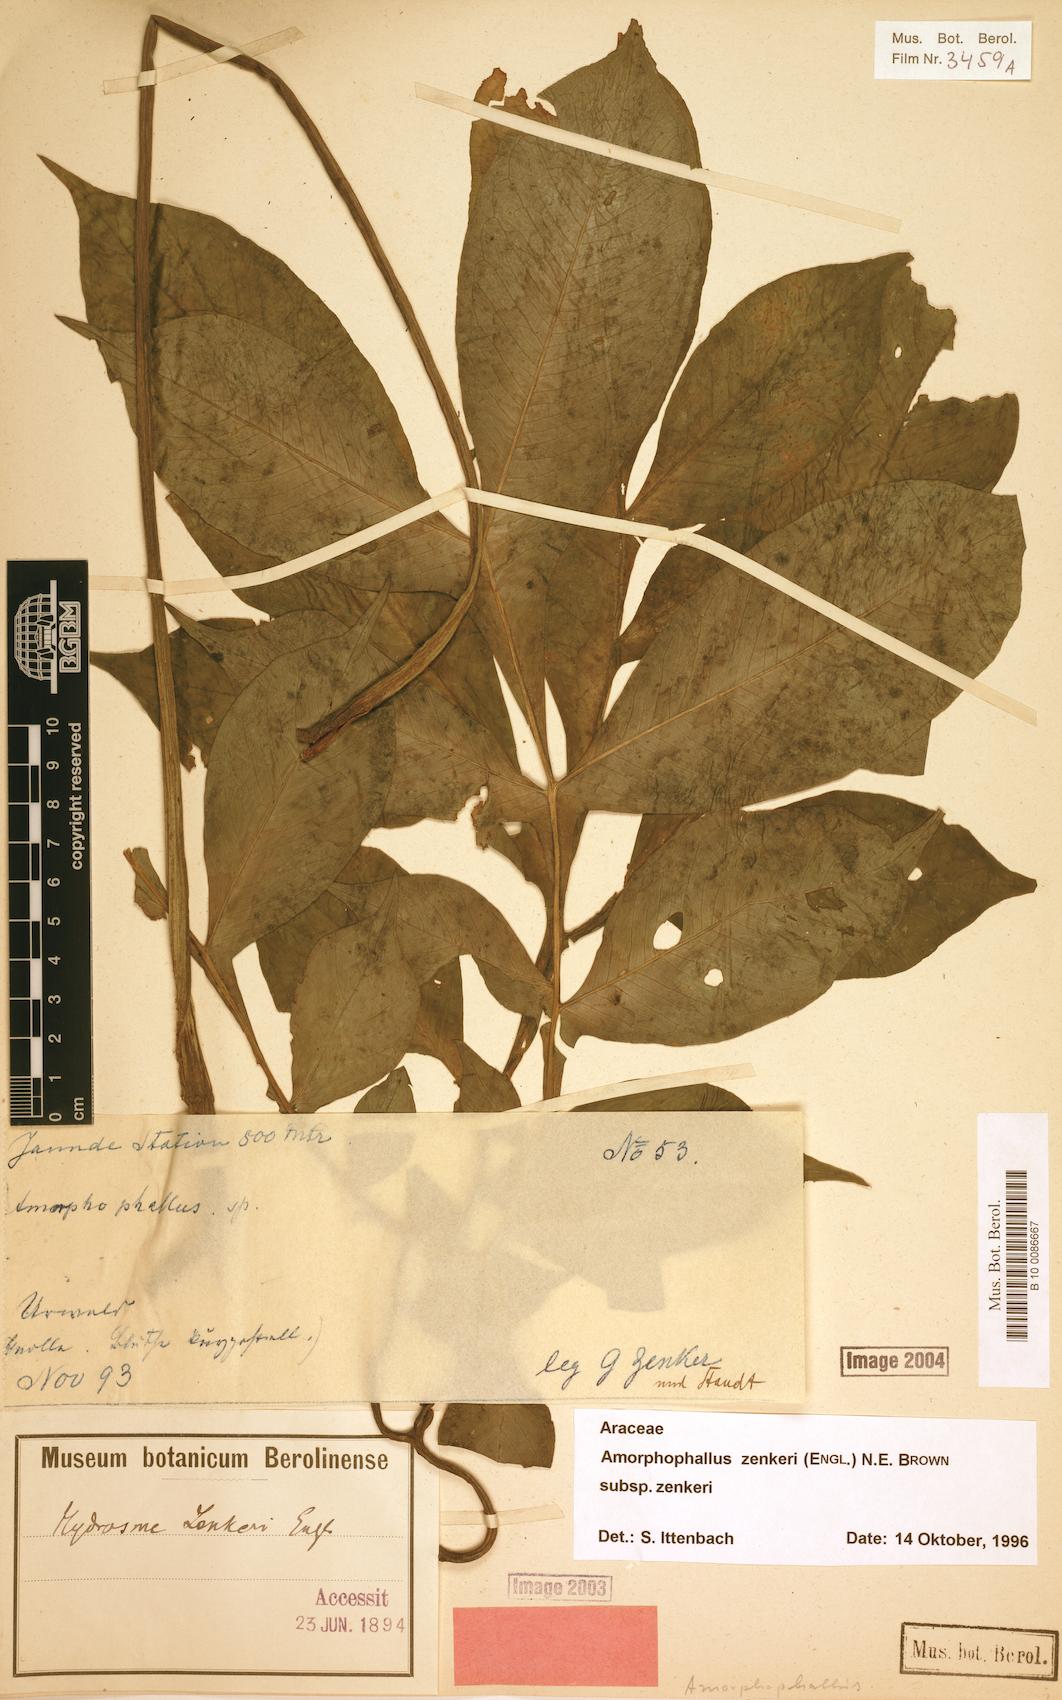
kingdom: Plantae
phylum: Tracheophyta
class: Liliopsida
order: Alismatales
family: Araceae
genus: Amorphophallus
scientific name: Amorphophallus zenkeri
